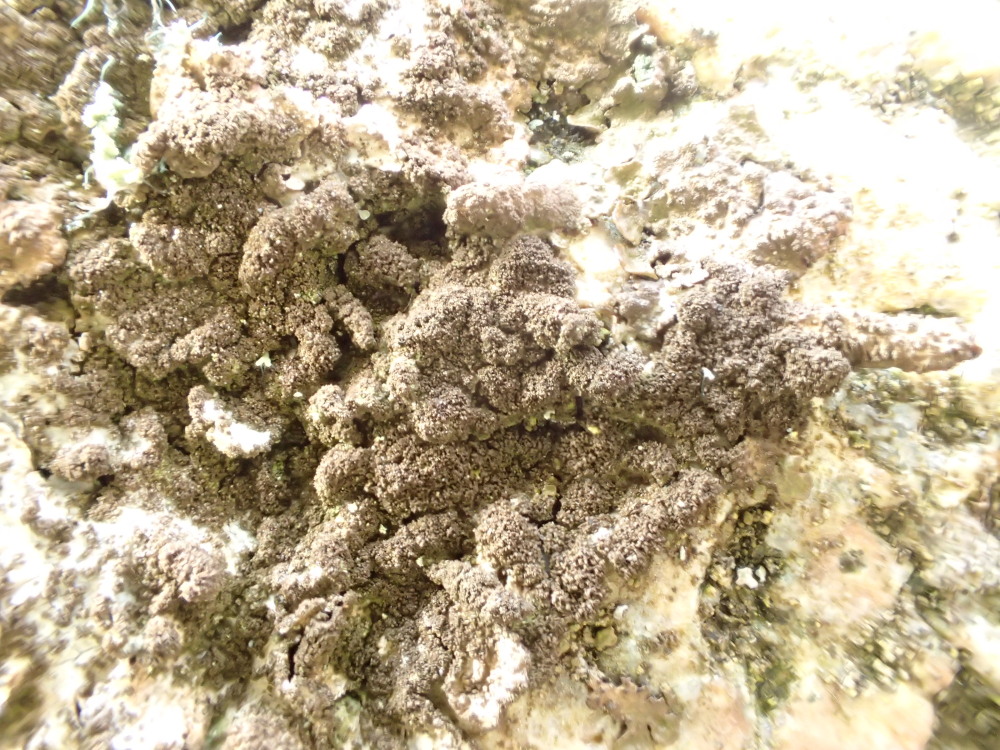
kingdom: Fungi
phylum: Ascomycota
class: Lecanoromycetes
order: Lecanorales
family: Parmeliaceae
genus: Melanelixia
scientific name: Melanelixia fuliginosa
